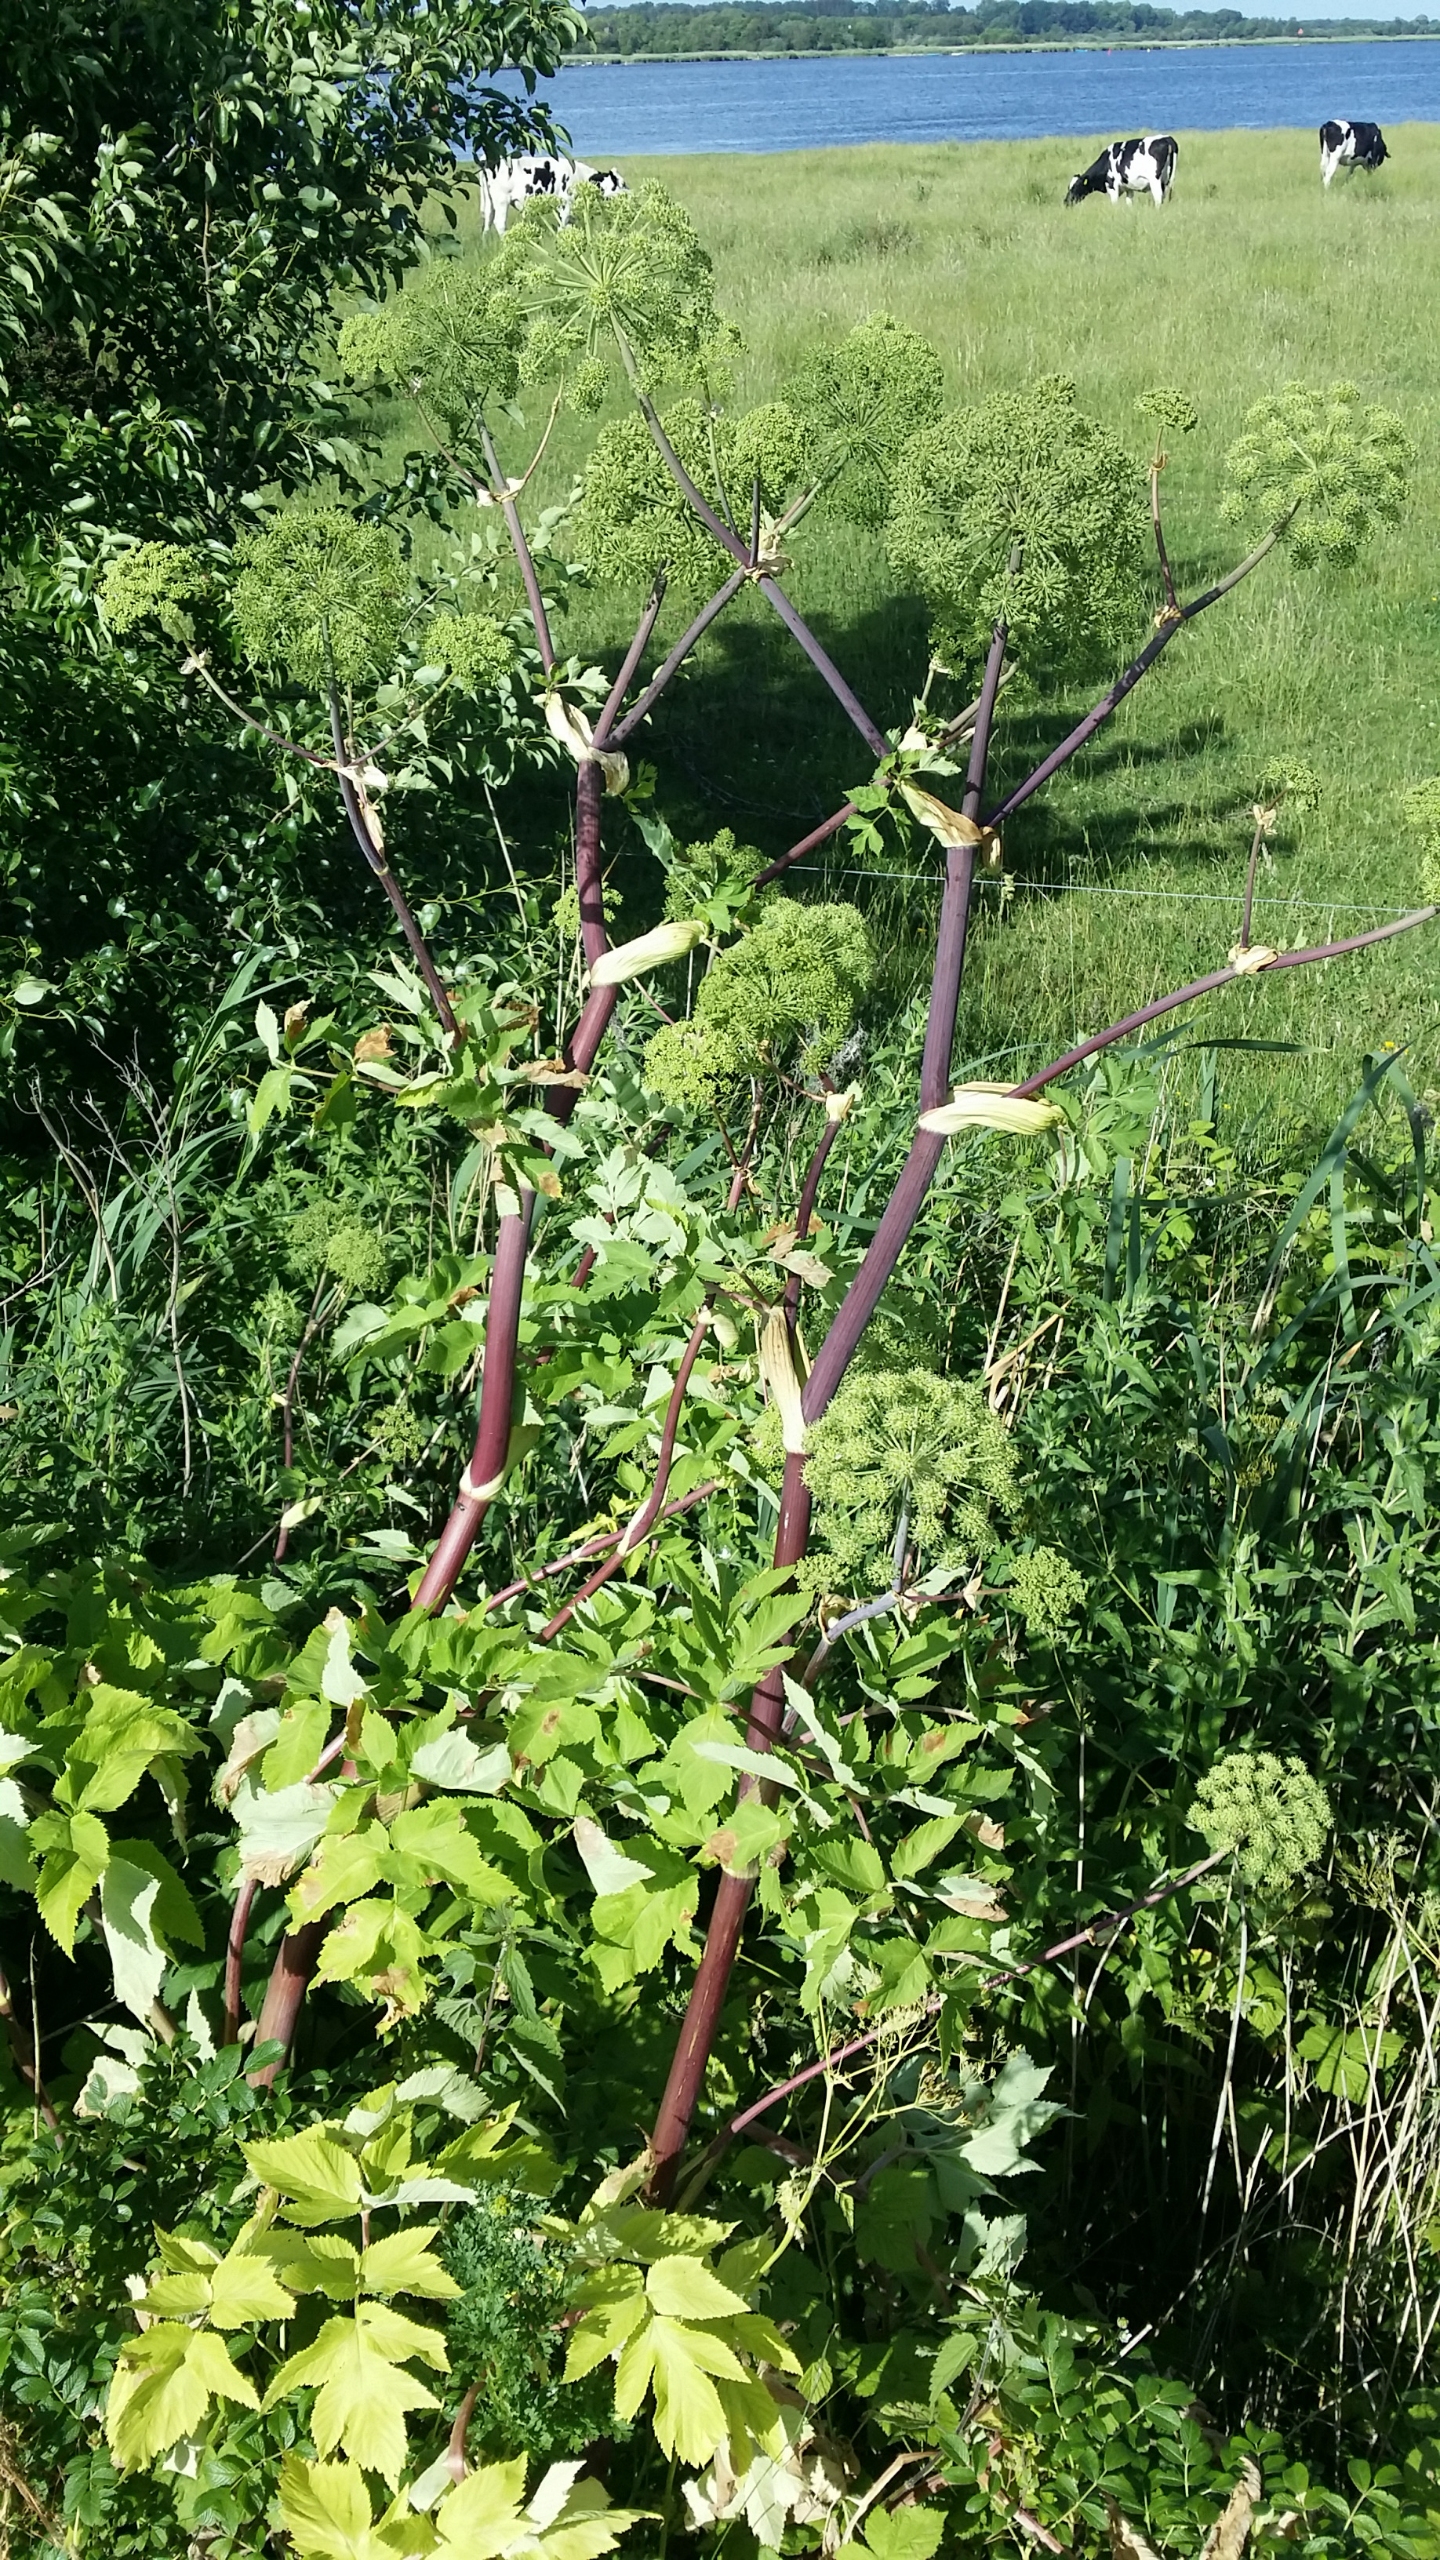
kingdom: Plantae
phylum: Tracheophyta
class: Magnoliopsida
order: Apiales
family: Apiaceae
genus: Angelica
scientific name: Angelica archangelica
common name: Kvan
